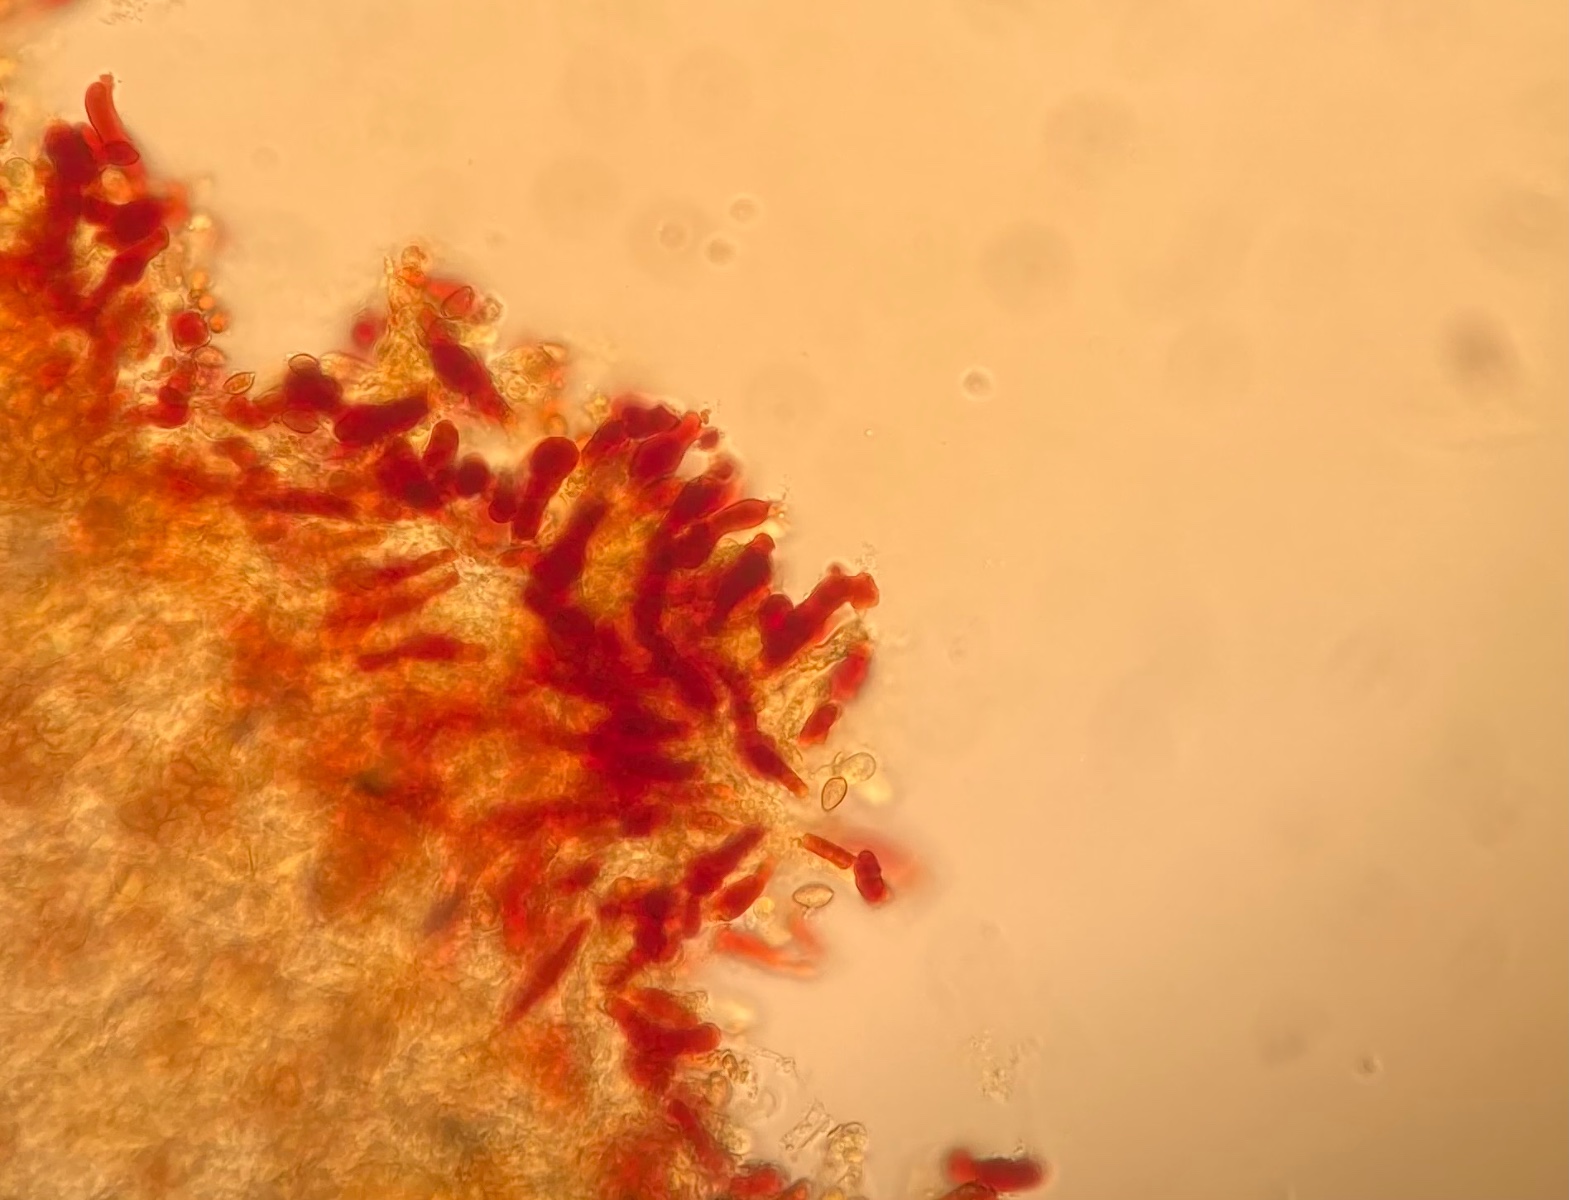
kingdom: Fungi
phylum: Basidiomycota
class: Agaricomycetes
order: Agaricales
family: Hymenogastraceae
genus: Hebeloma
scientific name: Hebeloma
